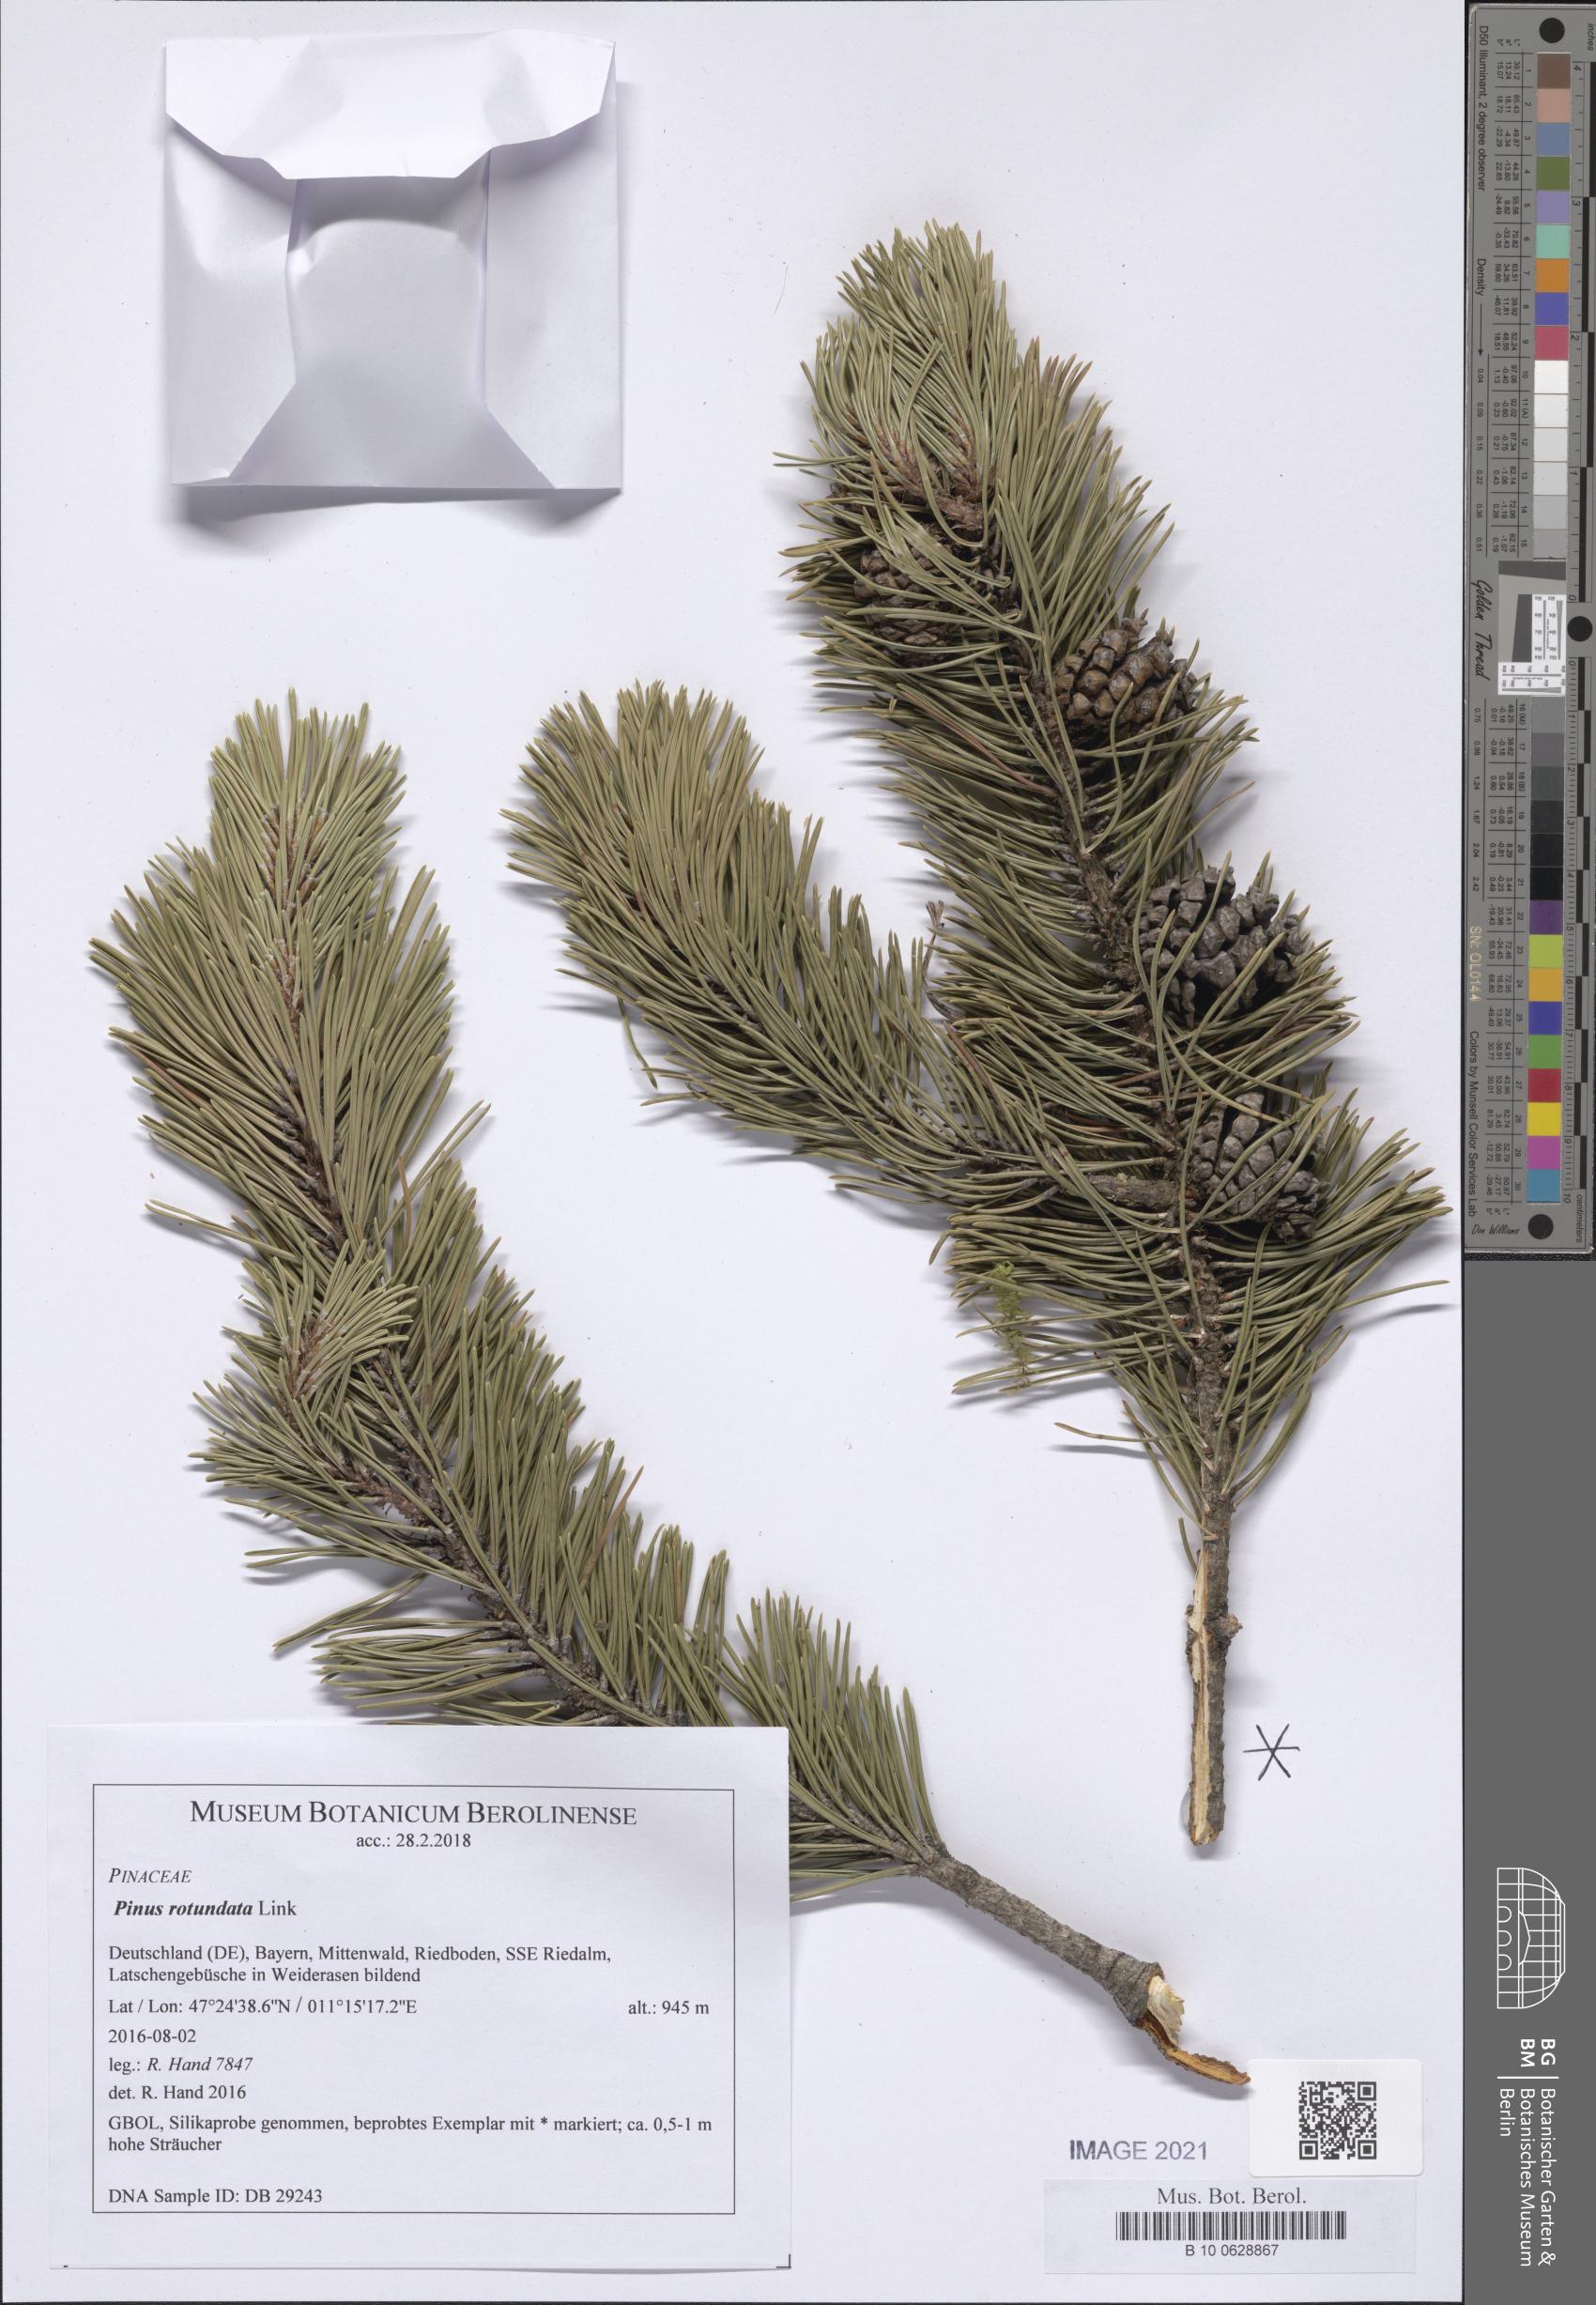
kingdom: Plantae
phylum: Tracheophyta
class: Pinopsida
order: Pinales
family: Pinaceae
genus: Pinus
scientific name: Pinus mugo
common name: Mugo pine
